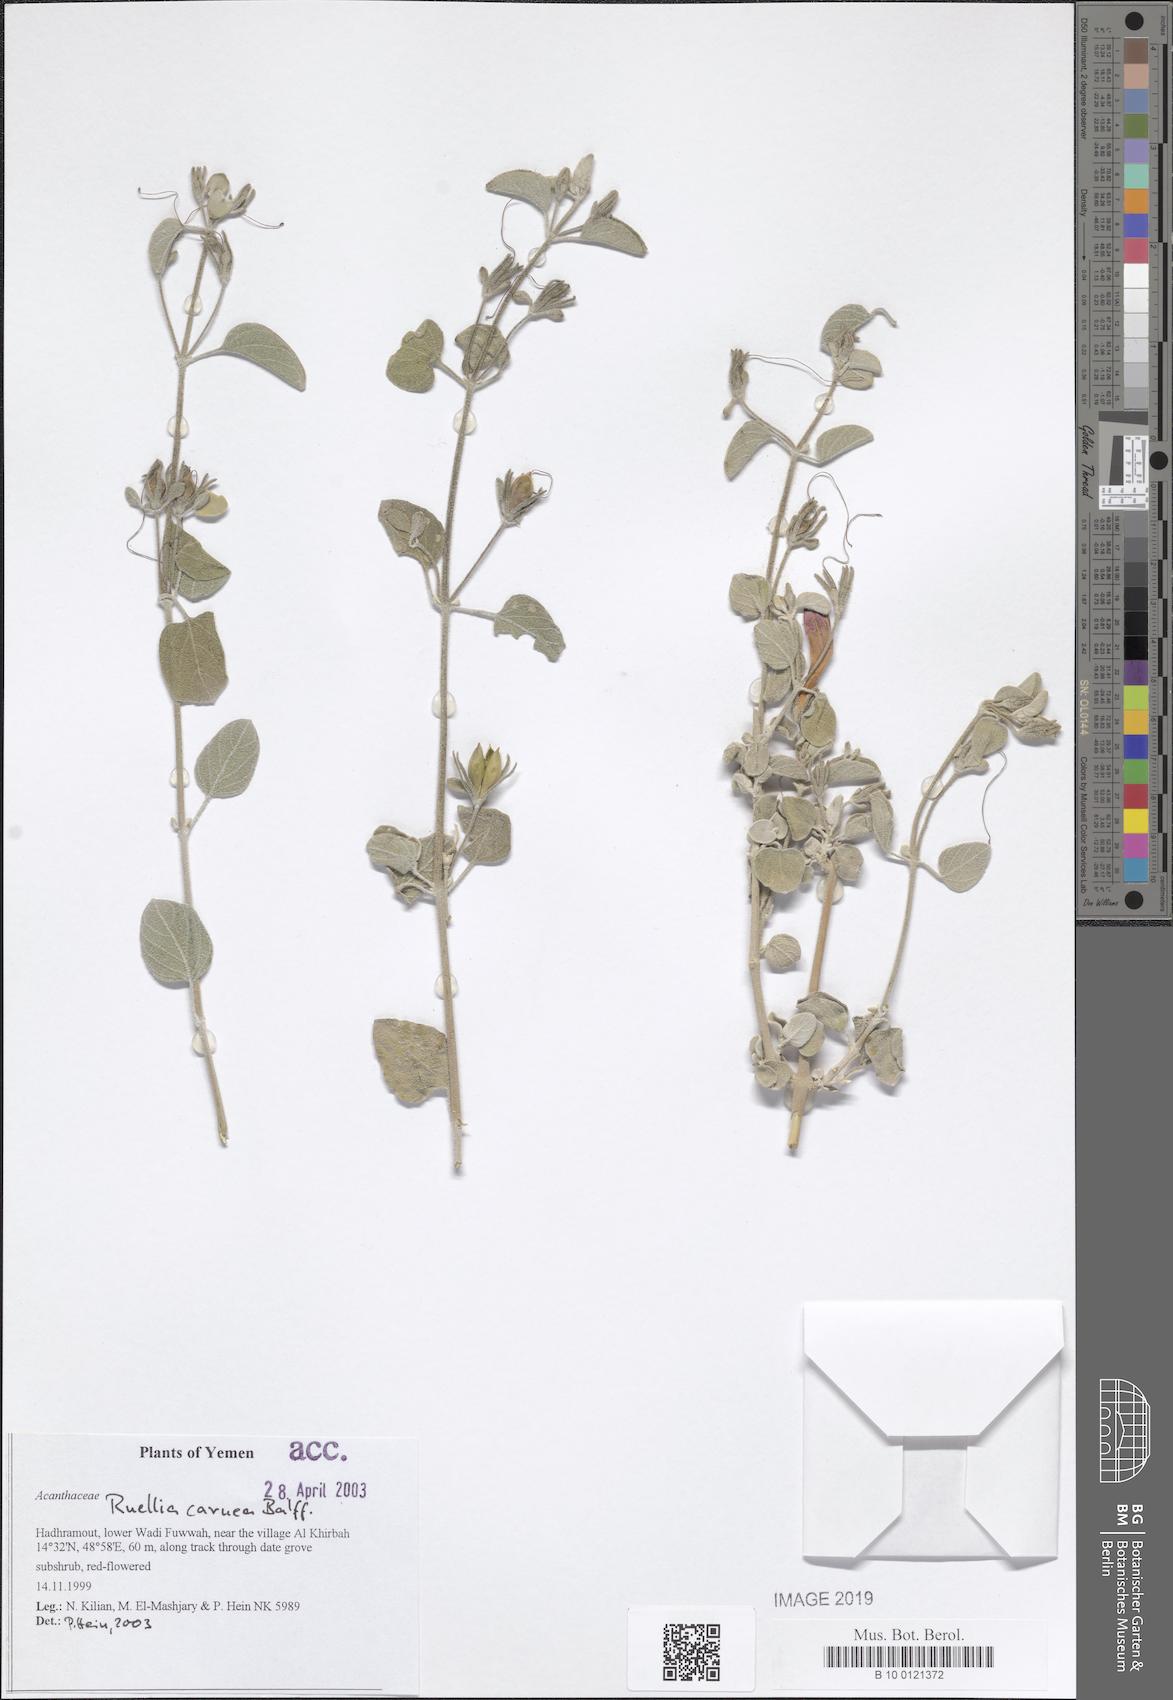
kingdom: Plantae
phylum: Tracheophyta
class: Magnoliopsida
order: Lamiales
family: Acanthaceae
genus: Ruellia
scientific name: Ruellia carnea
